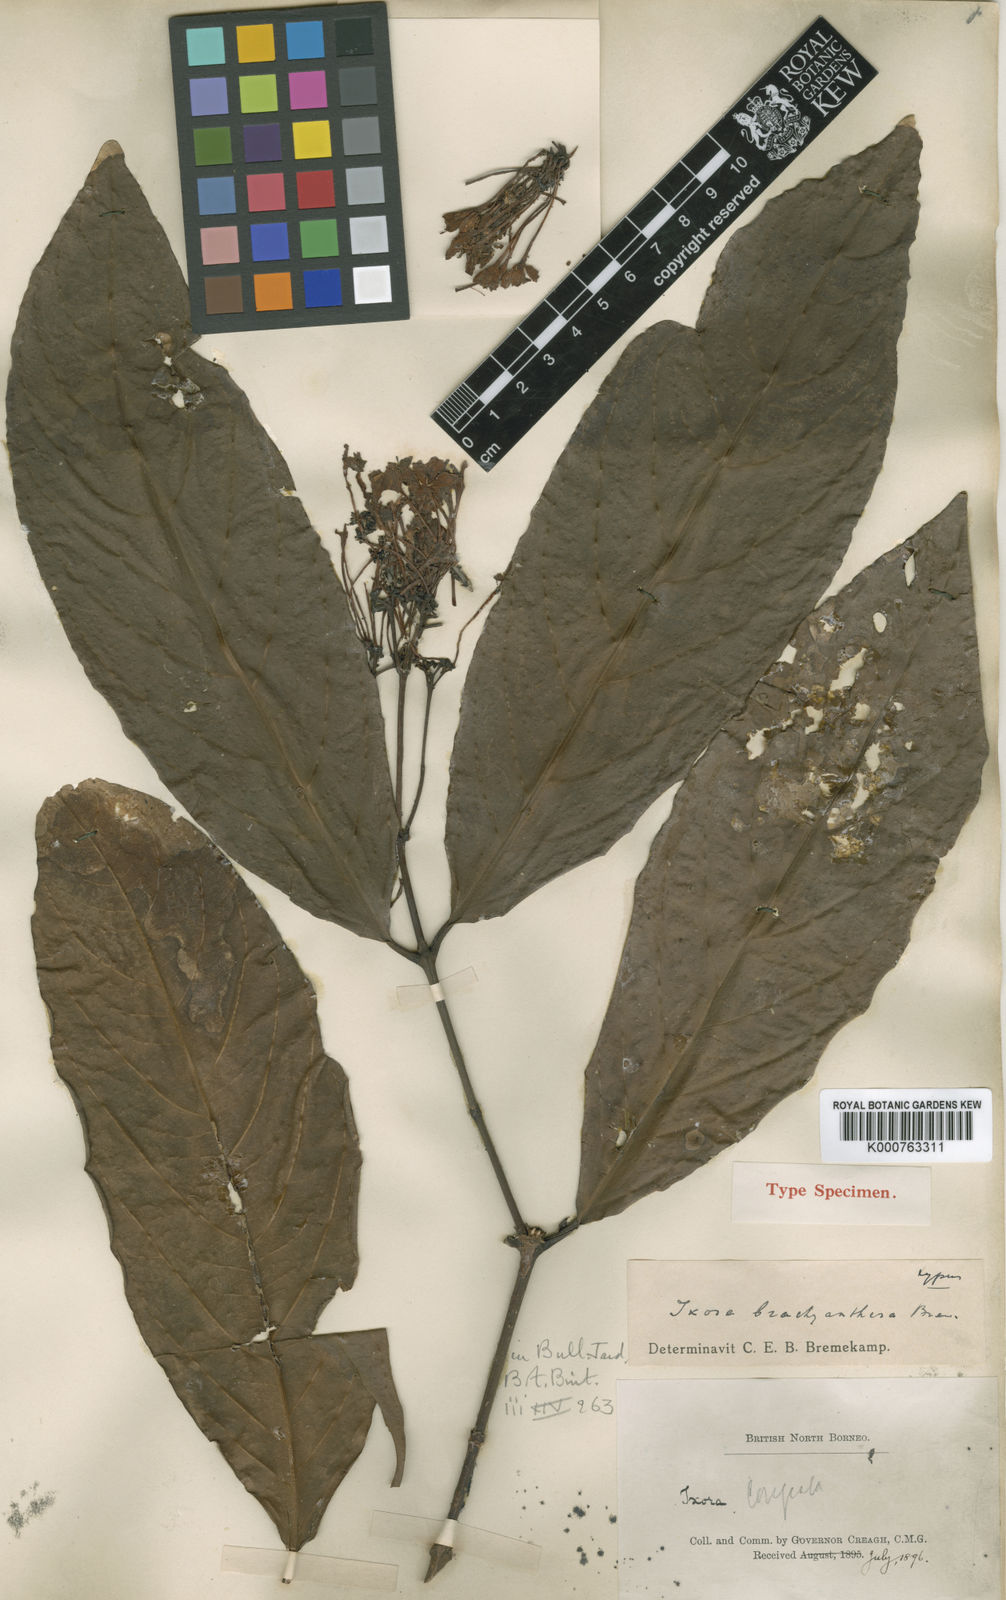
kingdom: Plantae
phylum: Tracheophyta
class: Magnoliopsida
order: Gentianales
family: Rubiaceae
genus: Ixora
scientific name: Ixora brachyanthera
